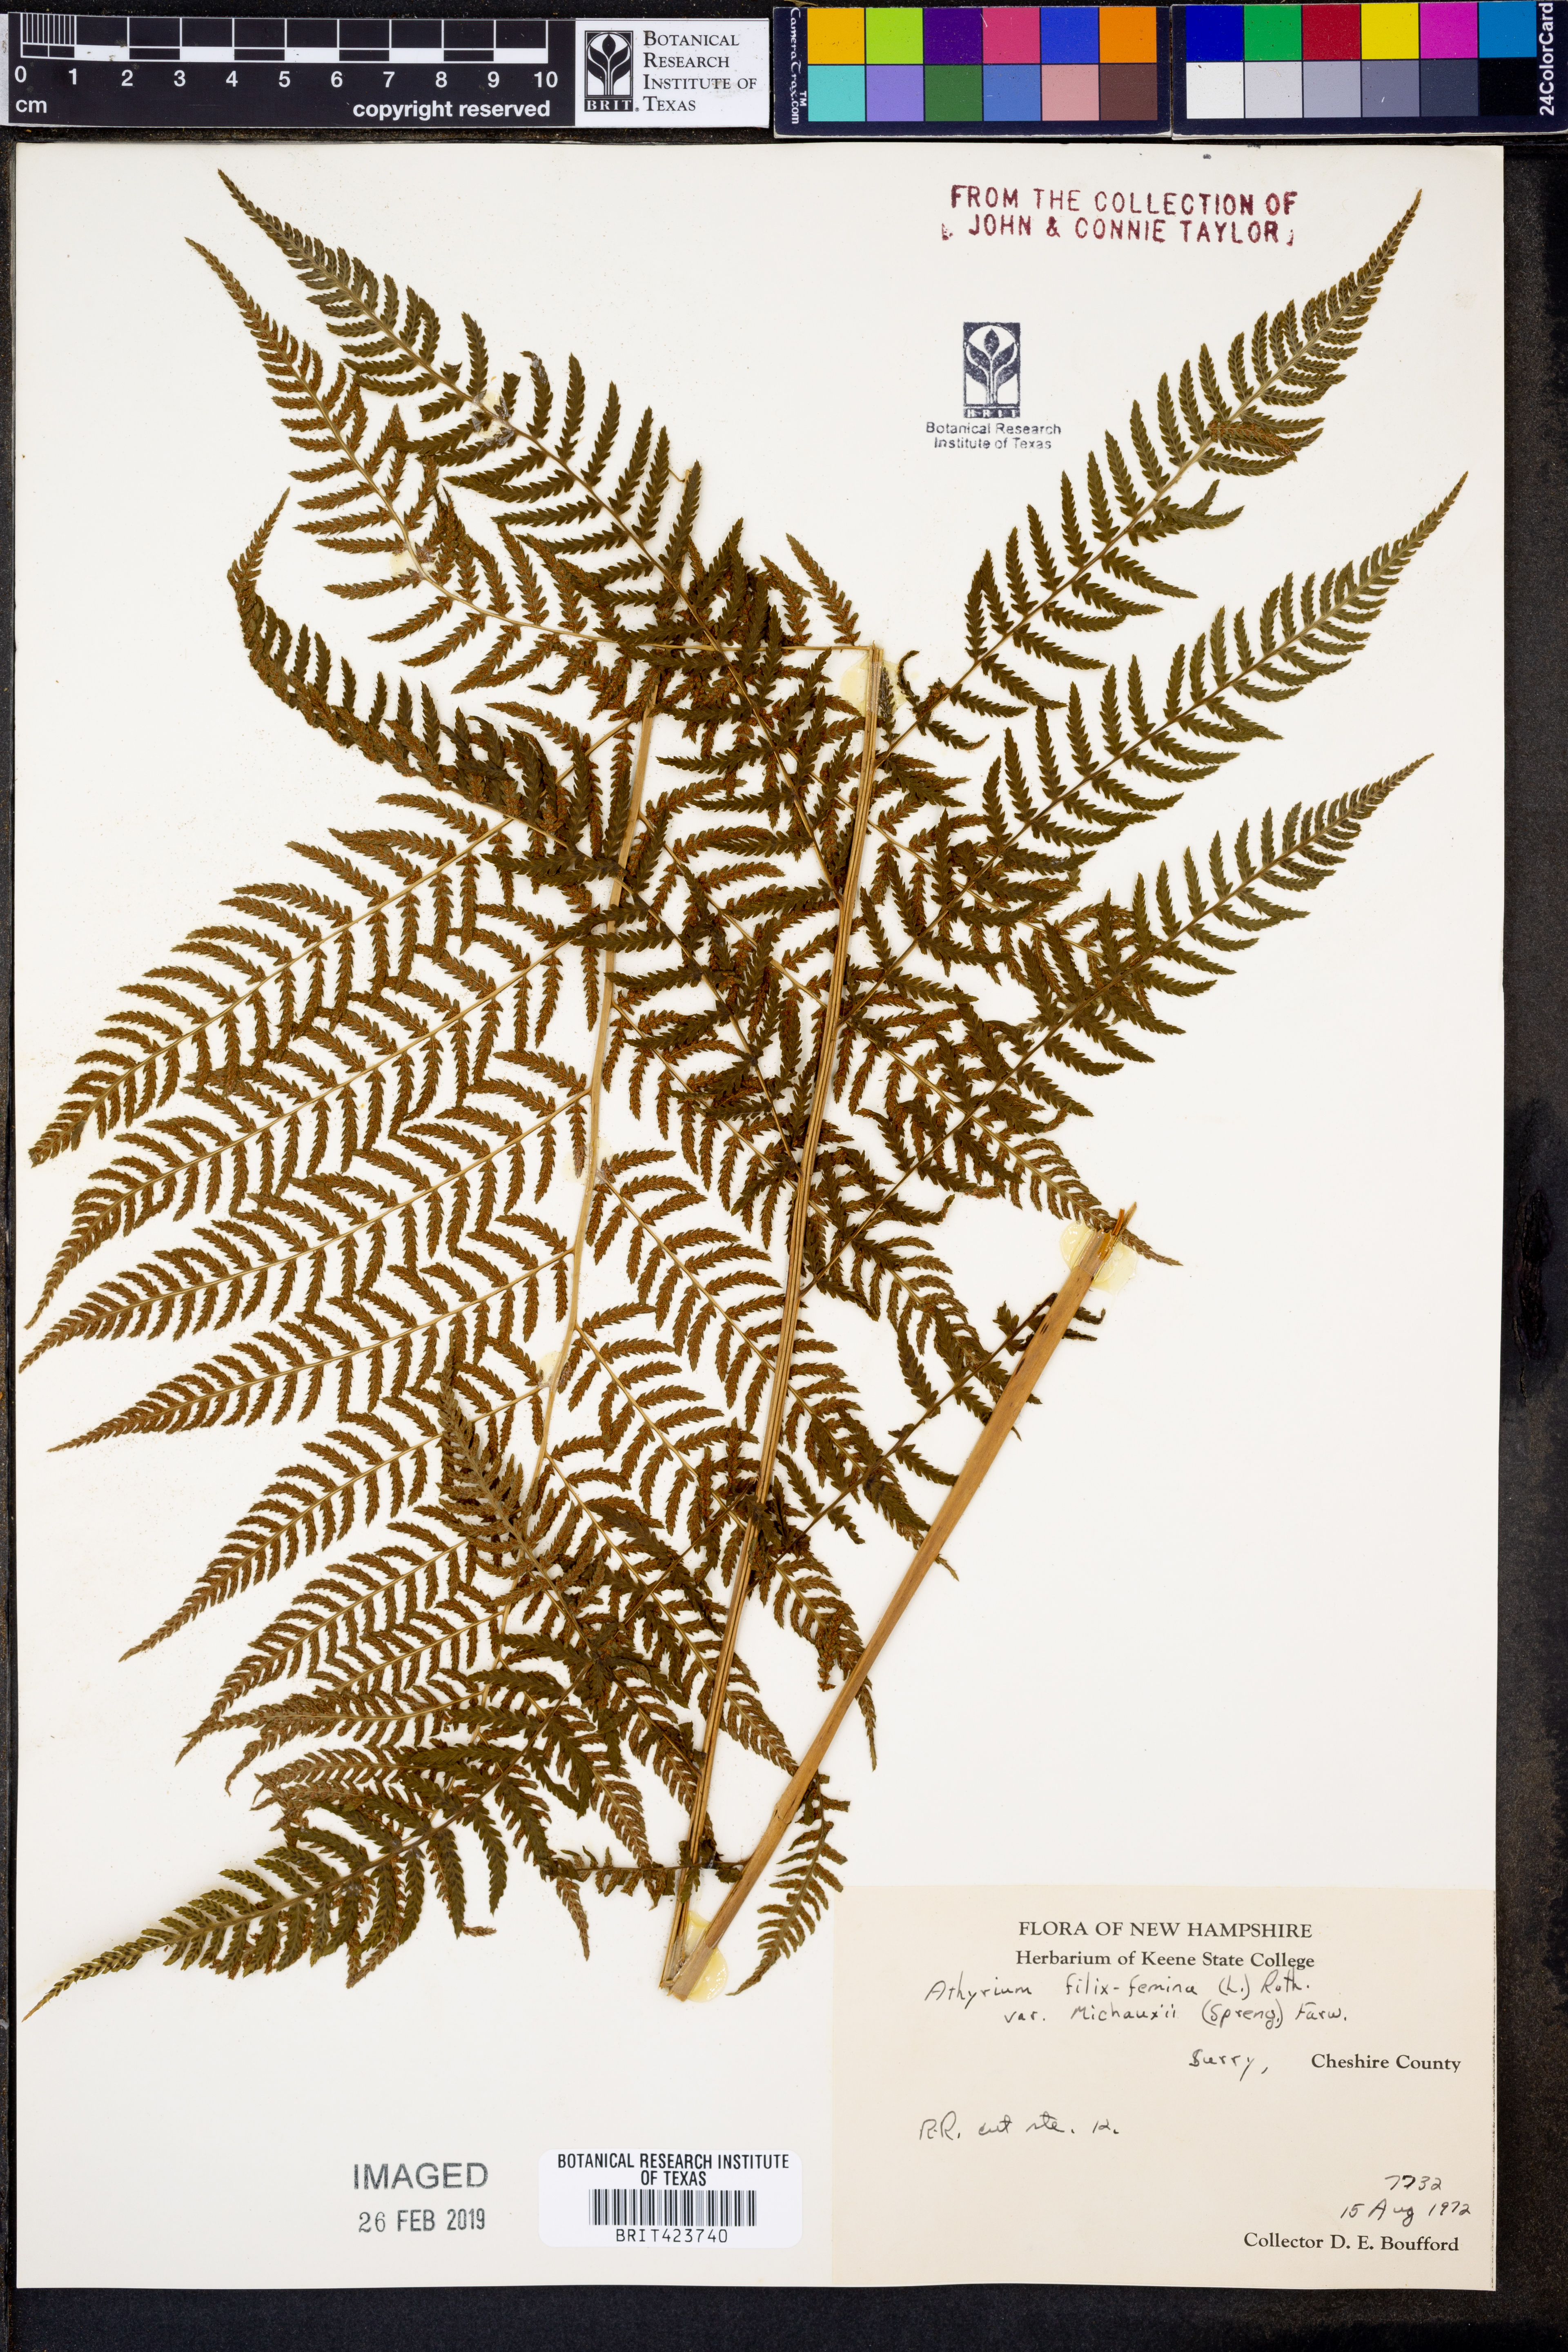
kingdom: Plantae
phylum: Tracheophyta
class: Polypodiopsida
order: Polypodiales
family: Athyriaceae
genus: Athyrium
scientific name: Athyrium angustum
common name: Northern lady fern
